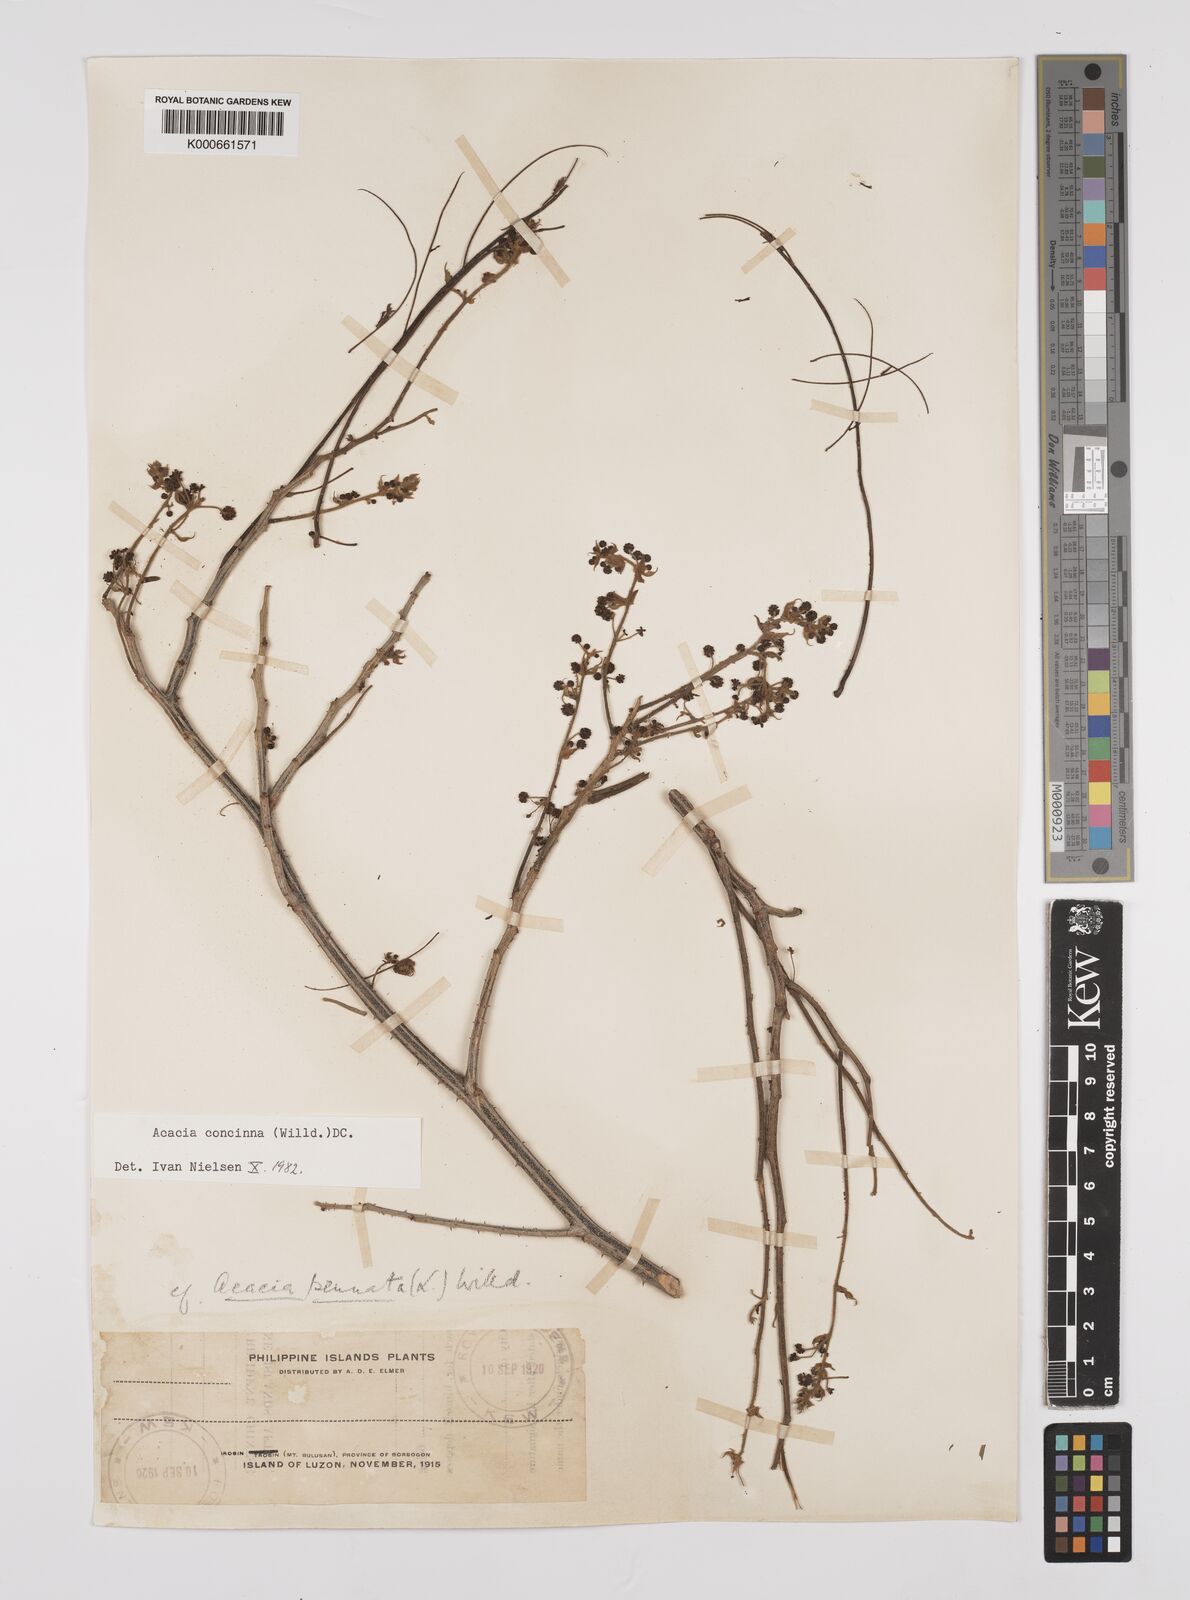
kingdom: Plantae
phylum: Tracheophyta
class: Magnoliopsida
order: Fabales
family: Fabaceae
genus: Senegalia
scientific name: Senegalia rugata
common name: Soap-pod
